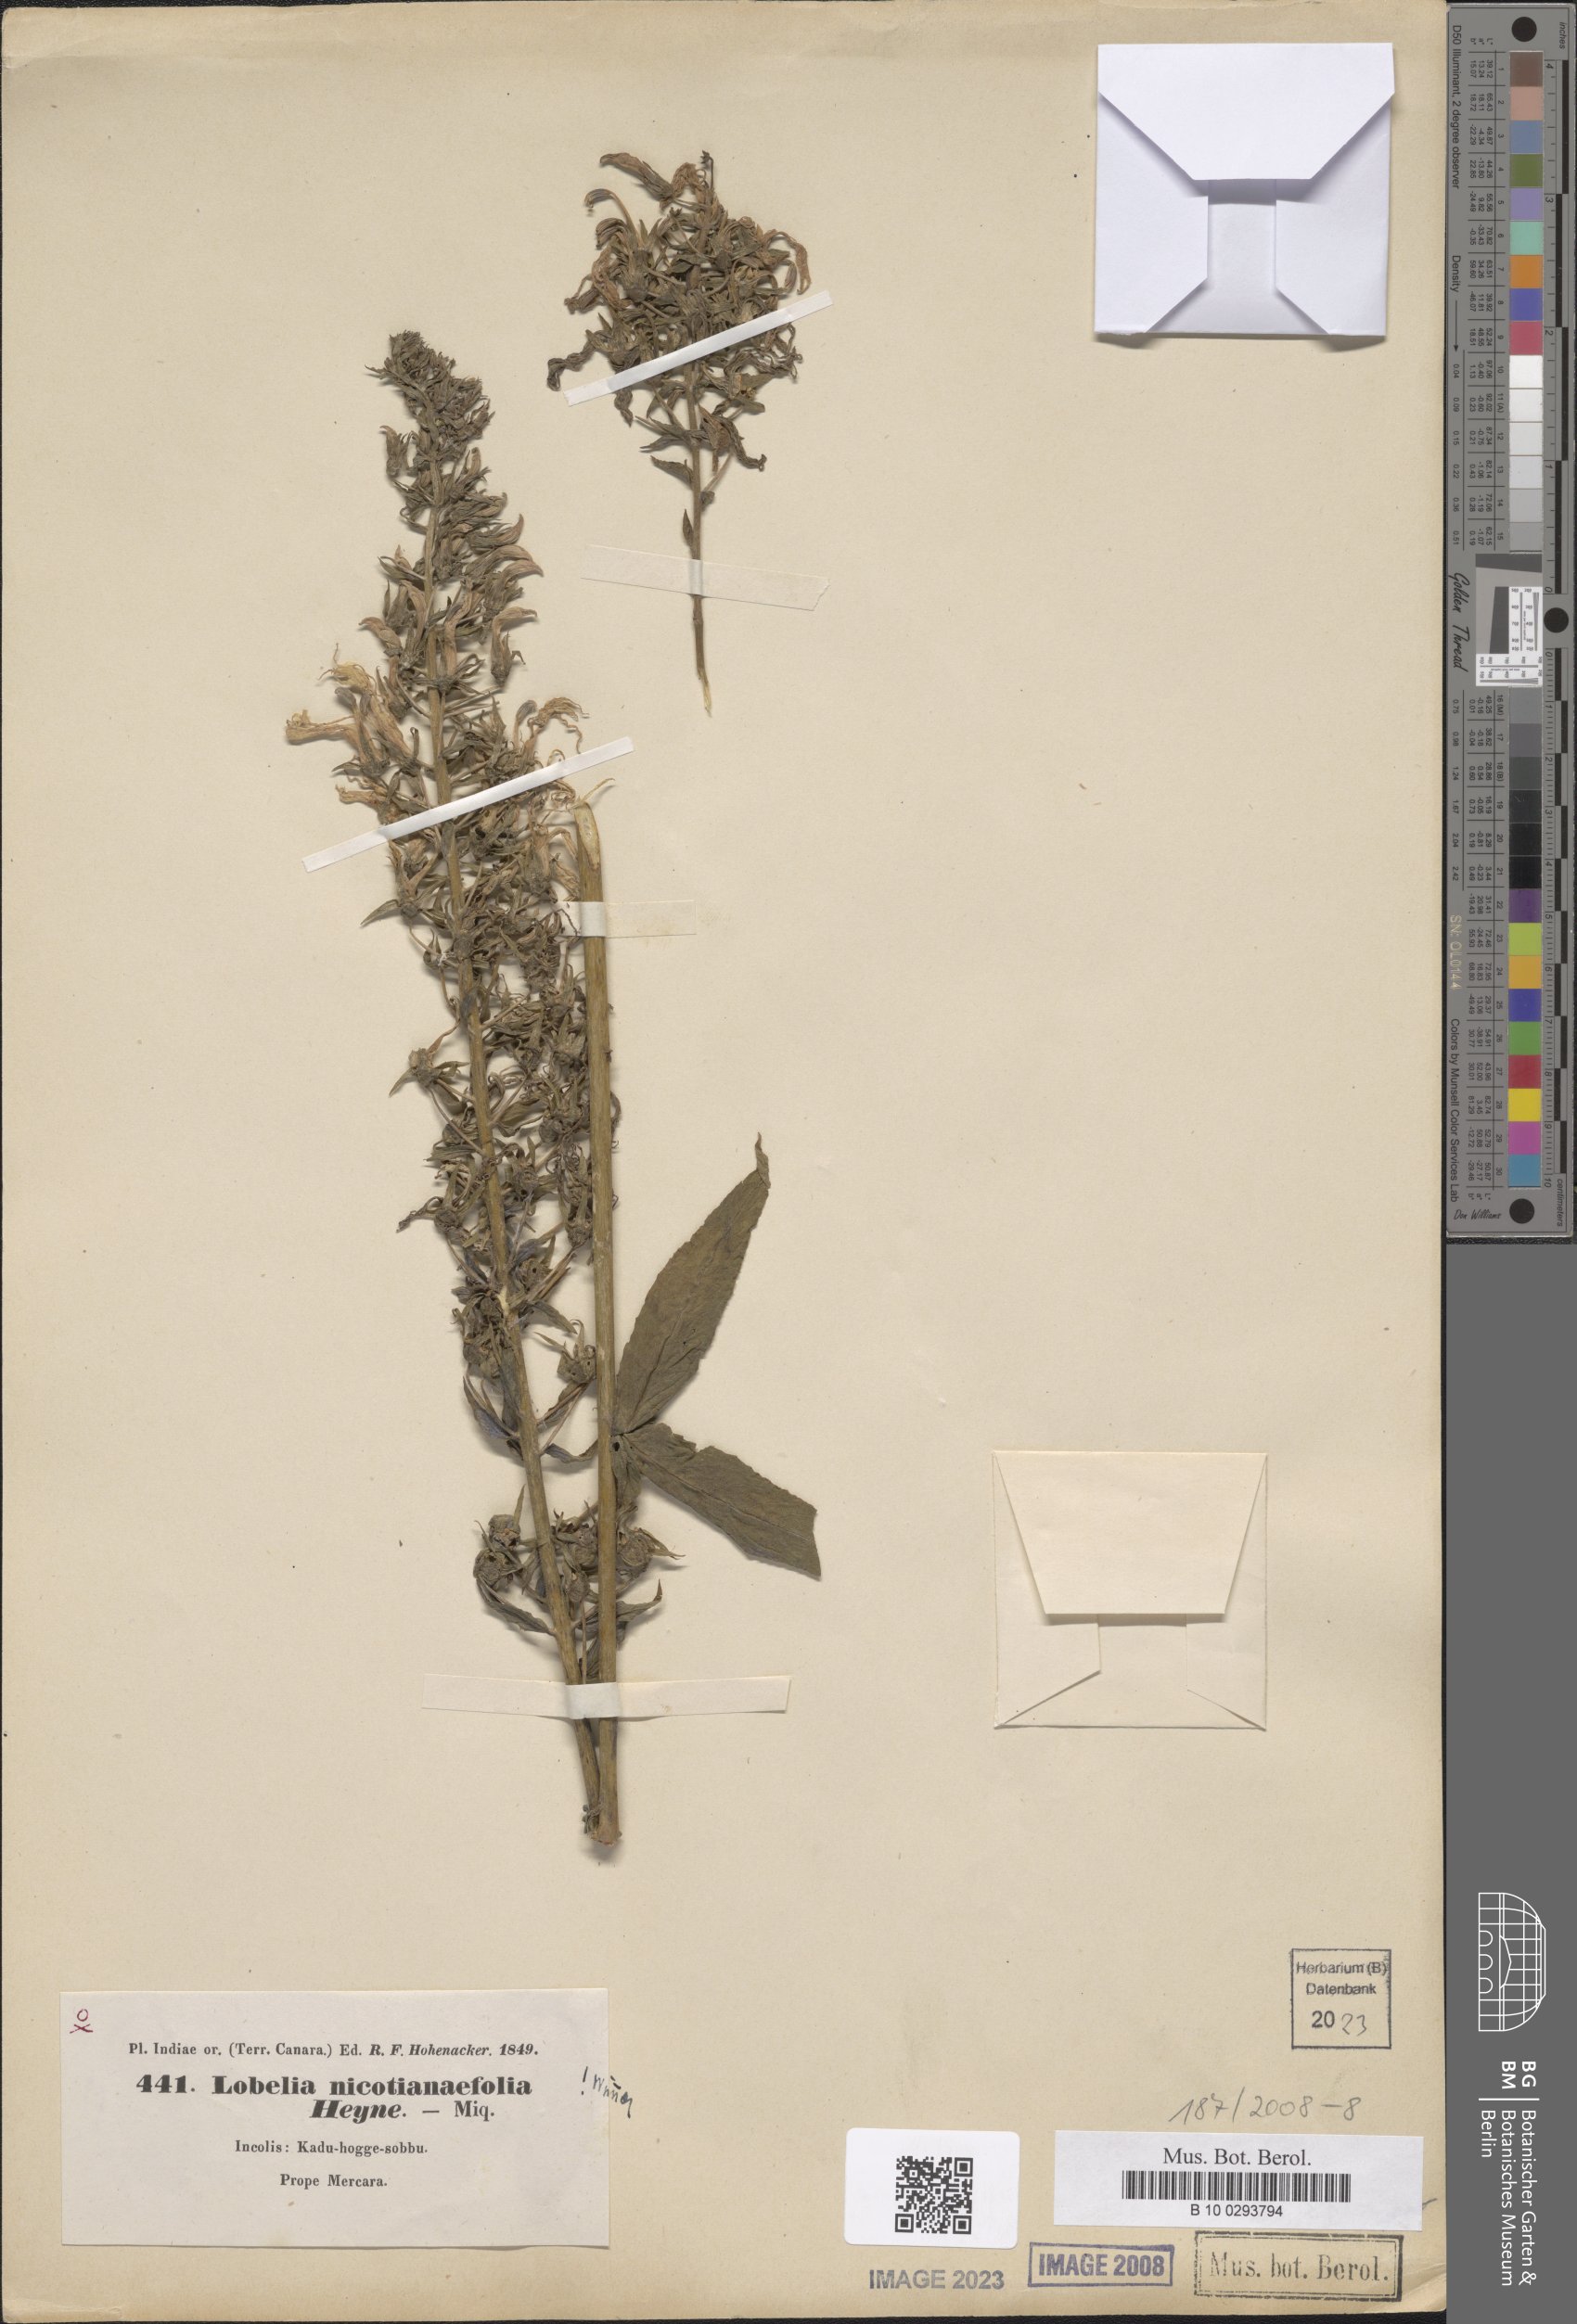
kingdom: Plantae
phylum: Tracheophyta
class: Magnoliopsida
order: Asterales
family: Campanulaceae
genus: Lobelia
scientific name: Lobelia nicotianifolia
